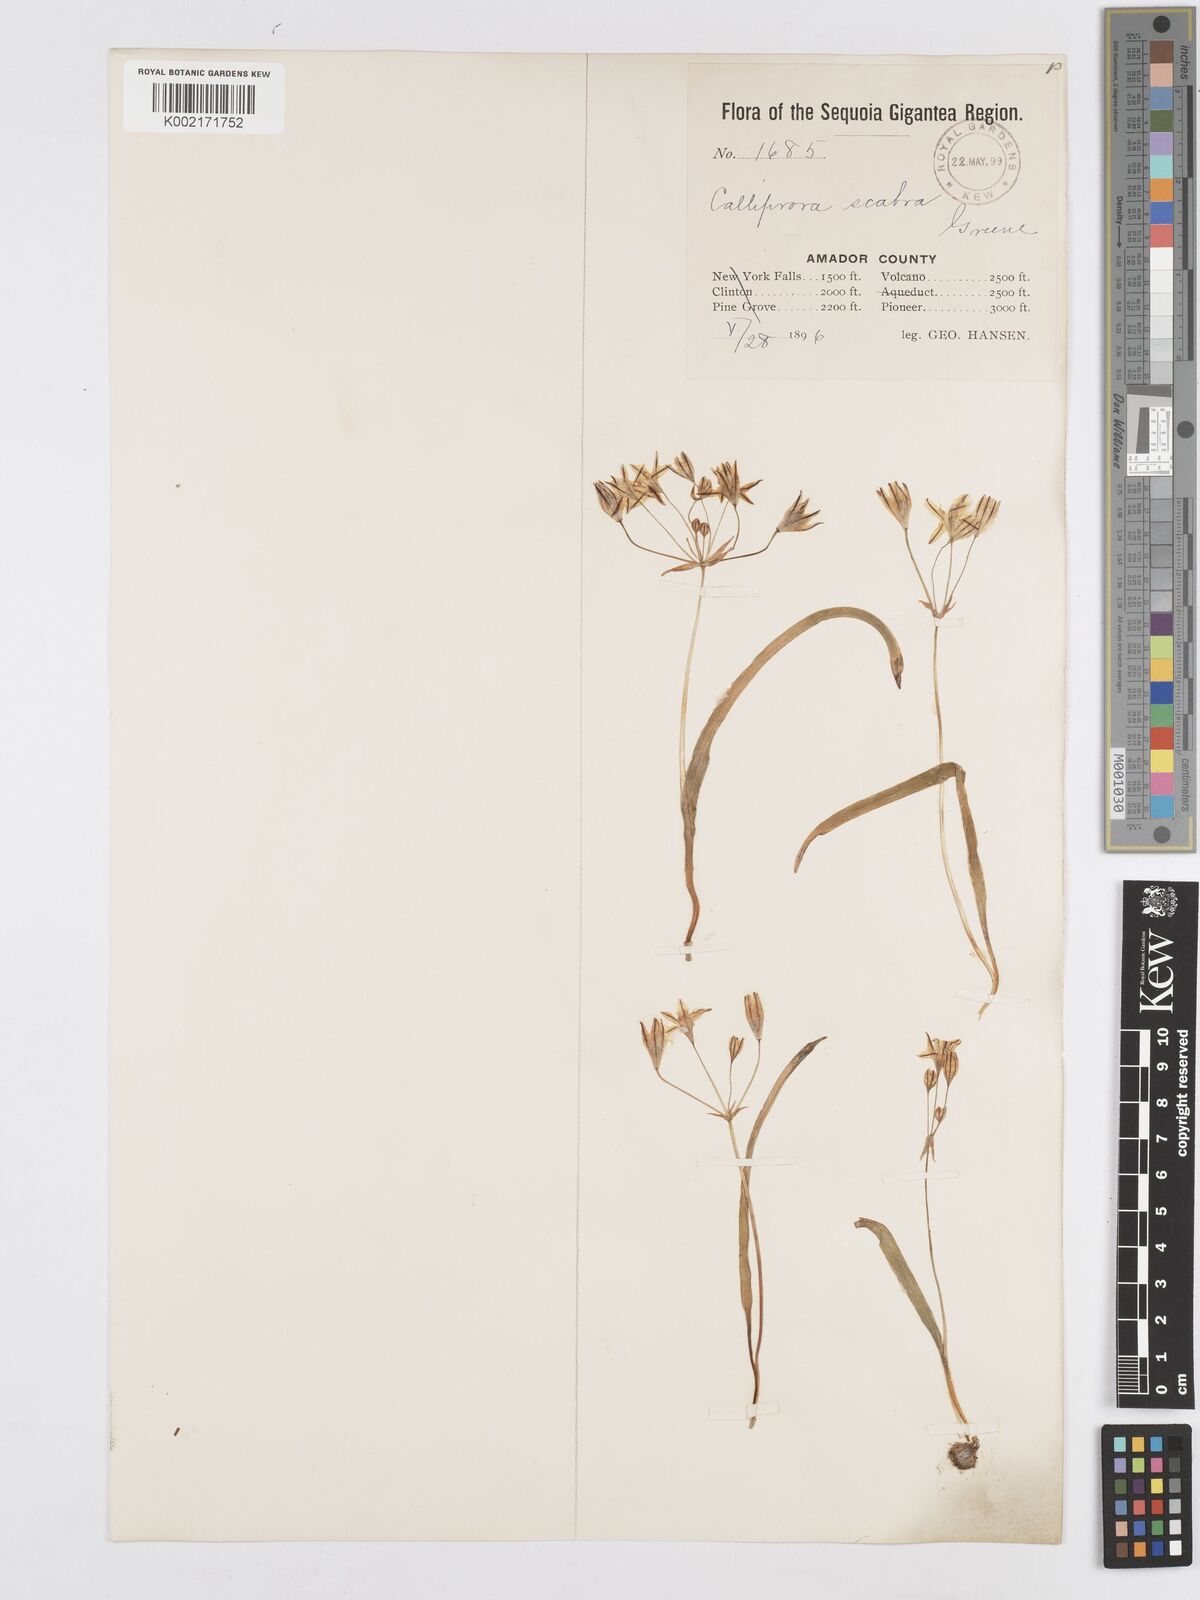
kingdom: Plantae
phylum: Tracheophyta
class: Liliopsida
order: Asparagales
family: Asparagaceae
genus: Triteleia
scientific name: Triteleia ixioides
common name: Yellow-brodiaea
